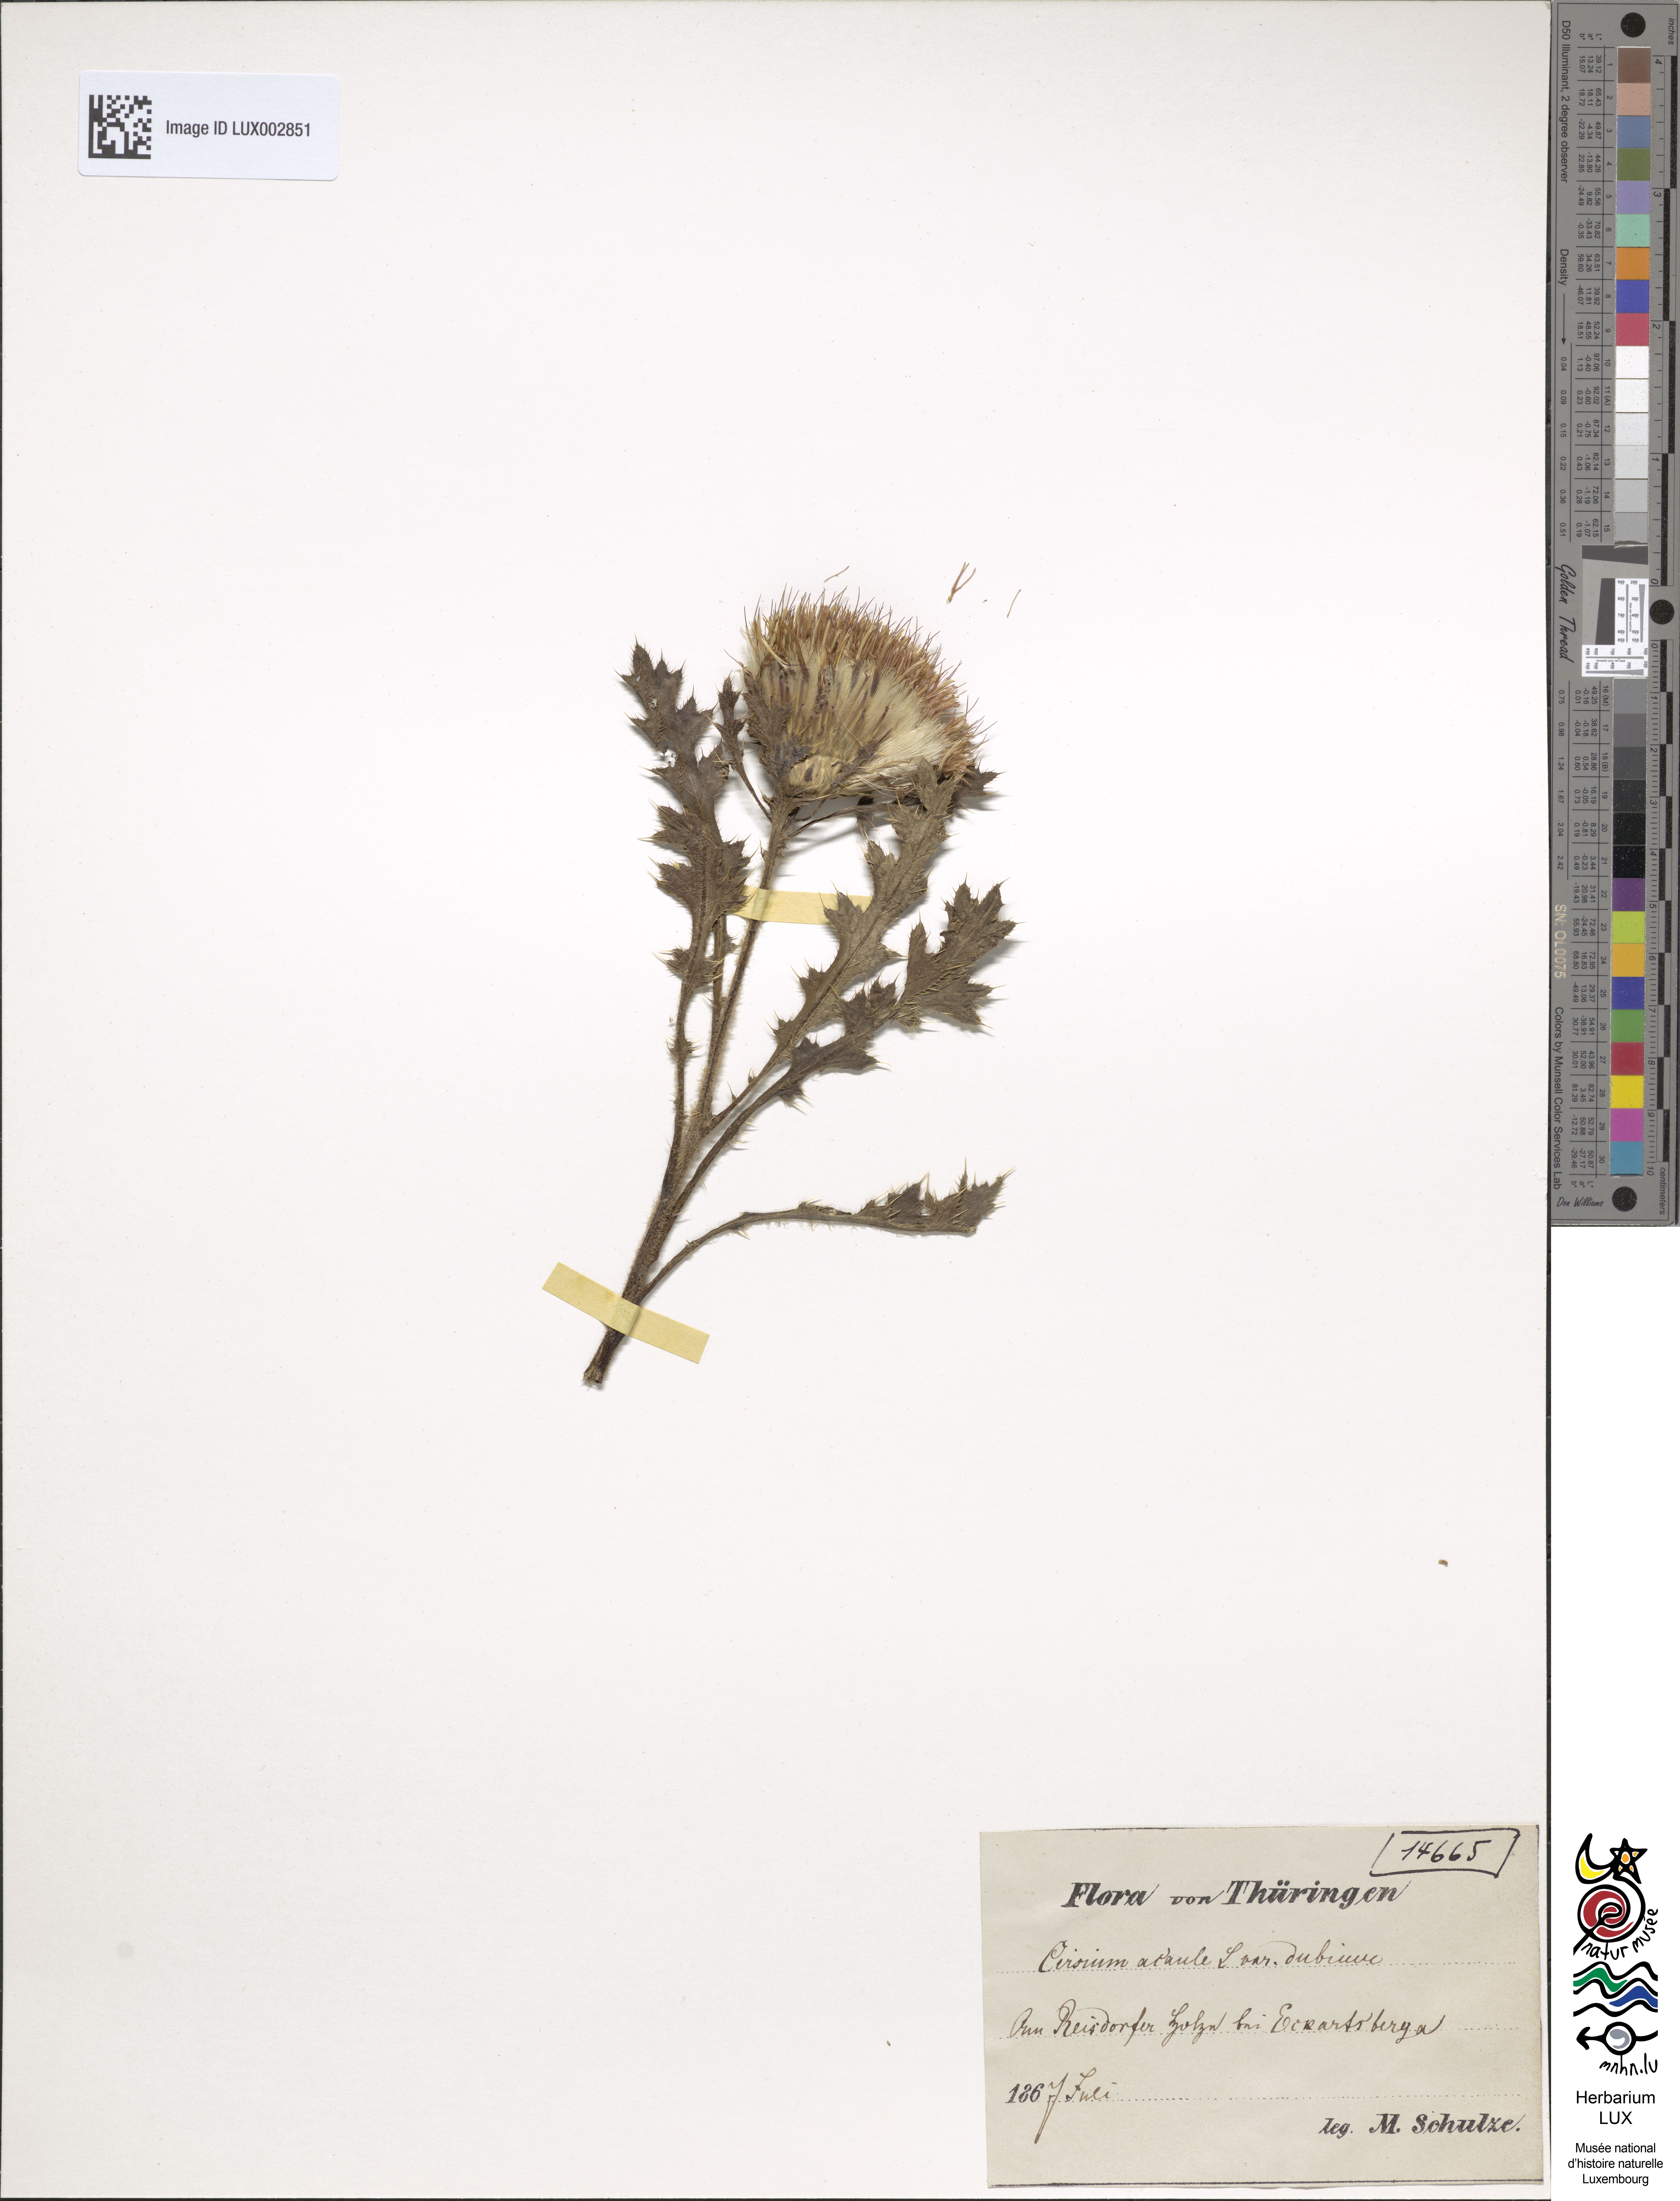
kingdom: Plantae
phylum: Tracheophyta
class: Magnoliopsida
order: Asterales
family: Asteraceae
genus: Cirsium
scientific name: Cirsium acaule
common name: Dwarf thistle
